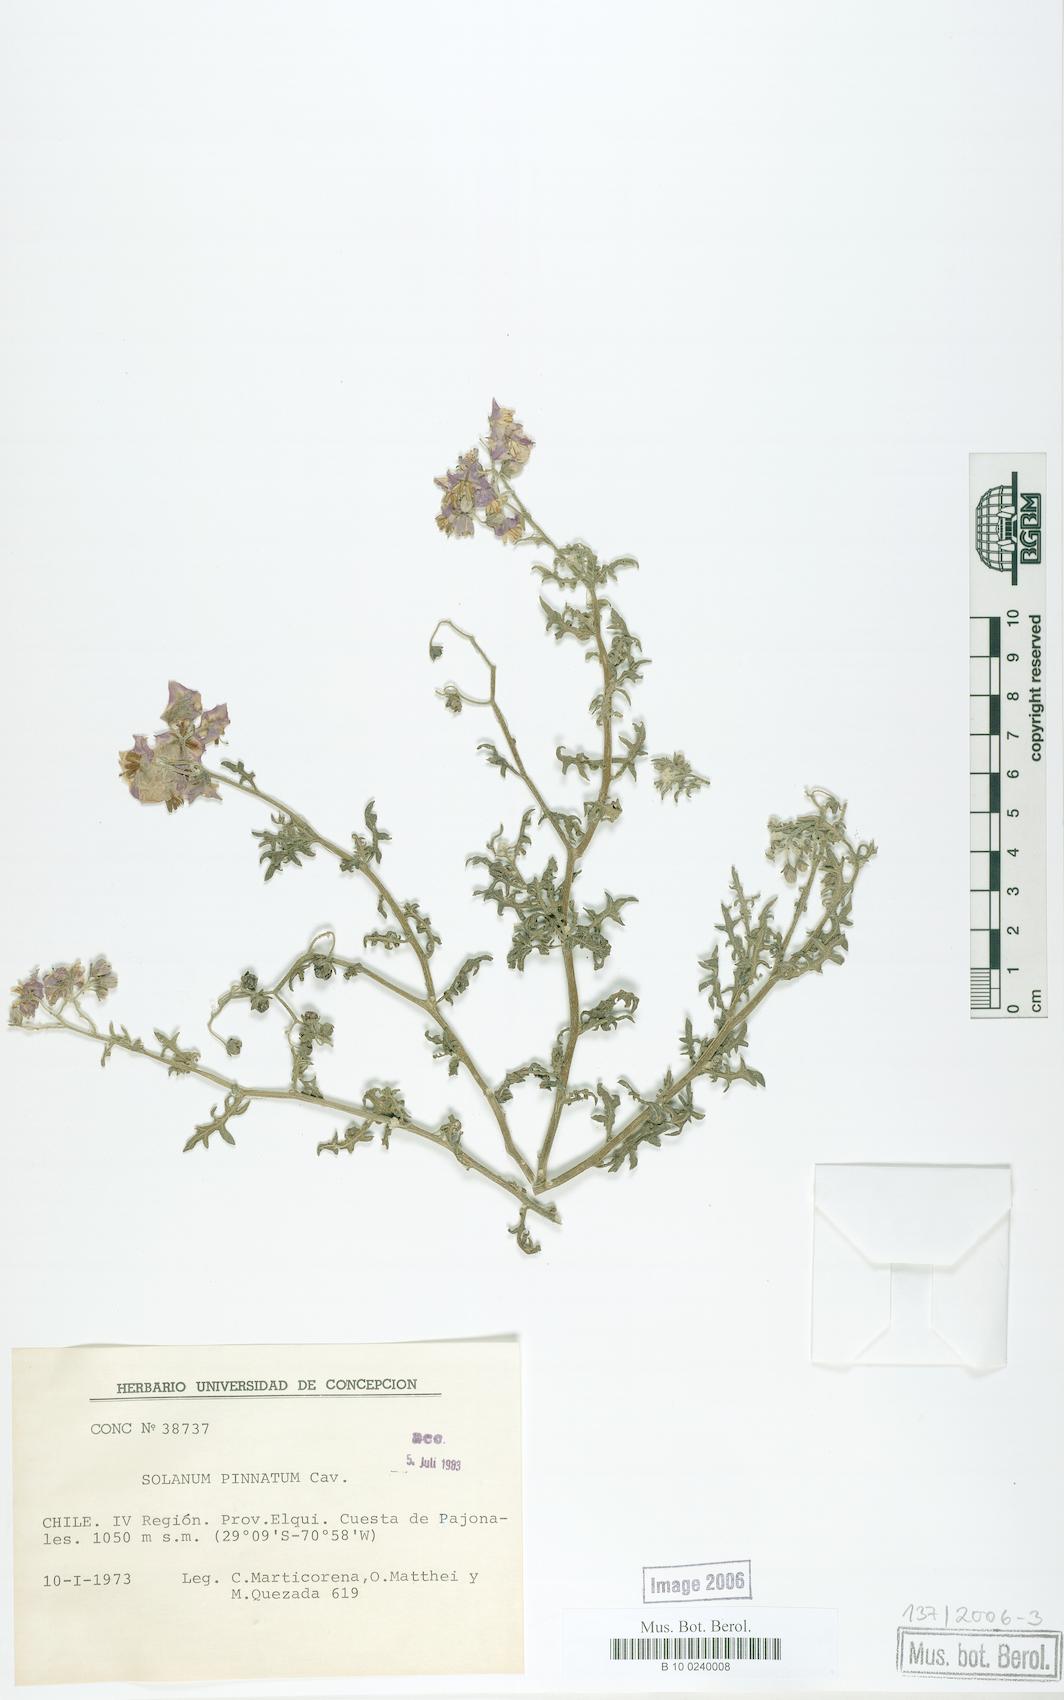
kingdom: Plantae
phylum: Tracheophyta
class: Magnoliopsida
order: Solanales
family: Solanaceae
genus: Solanum
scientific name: Solanum pinnatum
